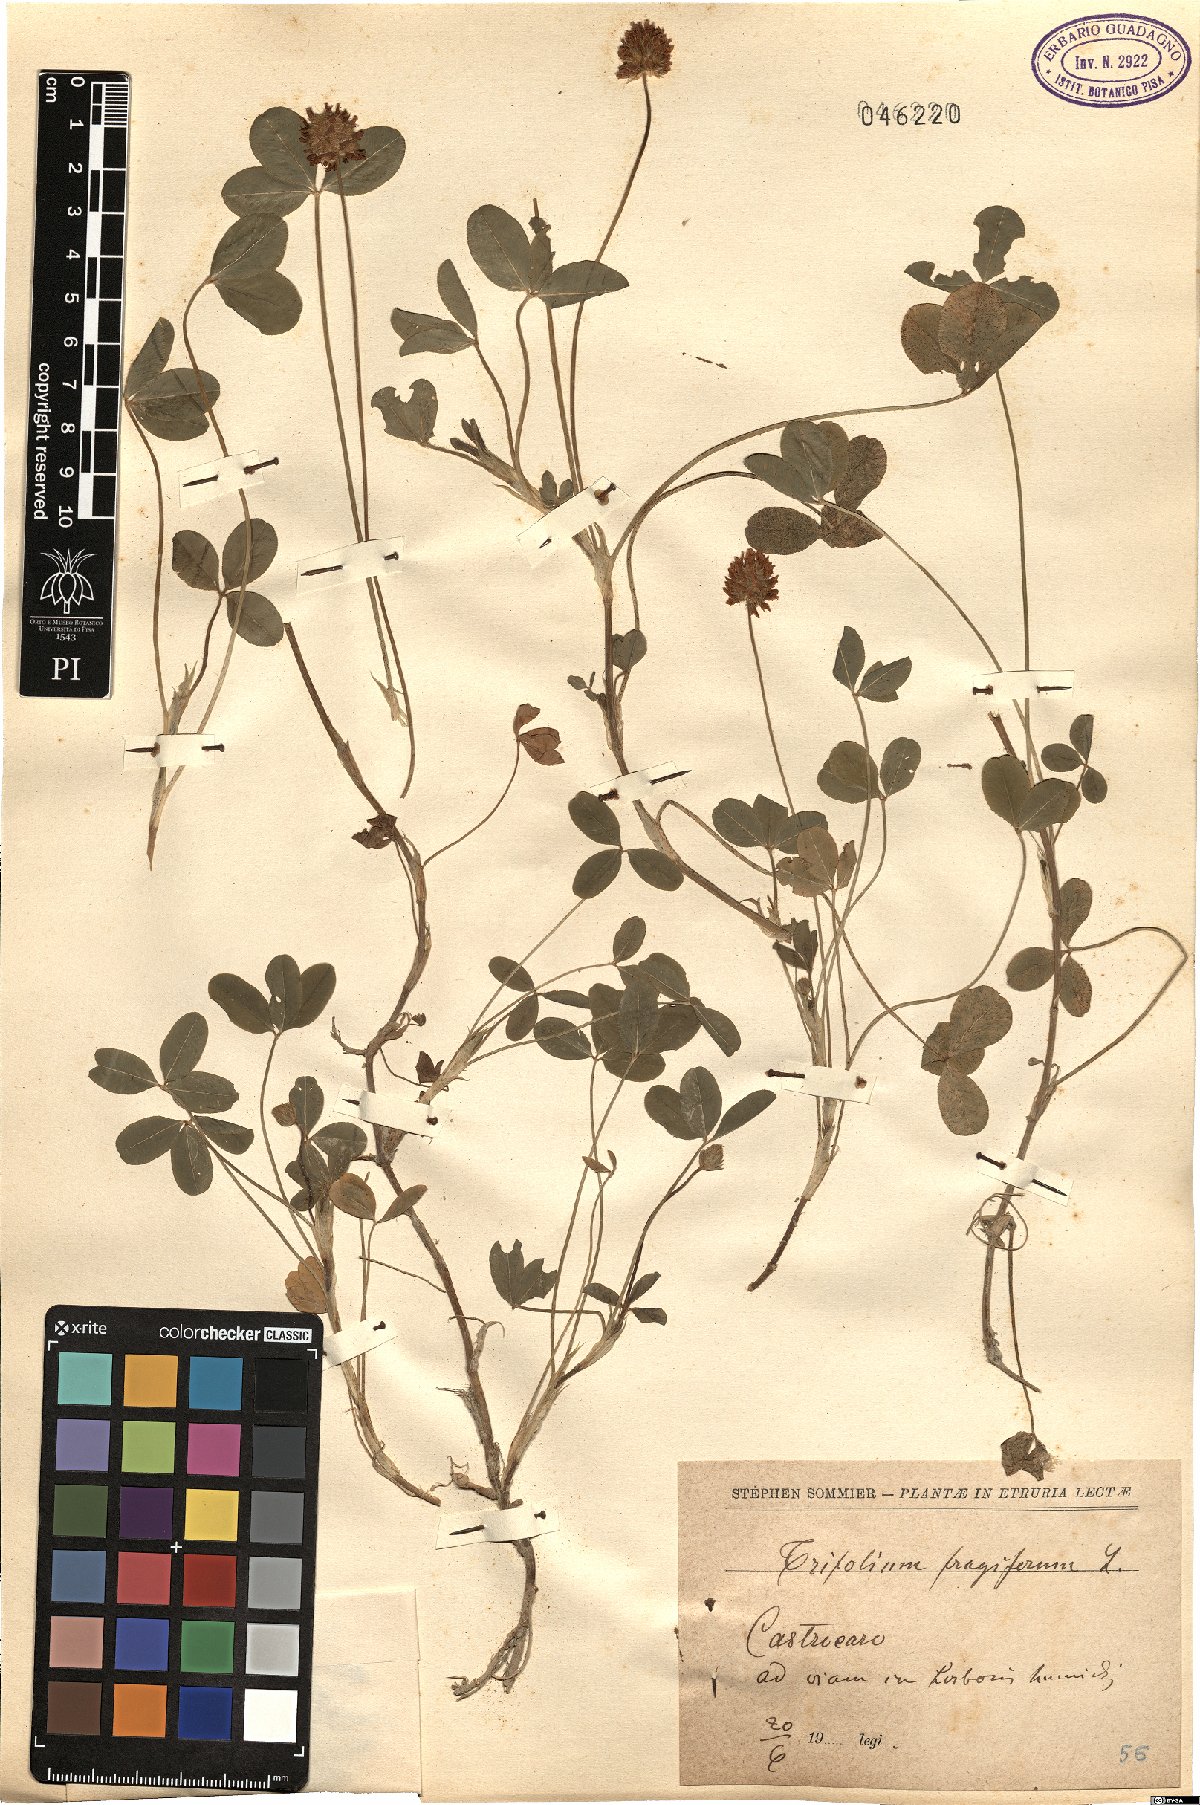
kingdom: Plantae
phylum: Tracheophyta
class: Magnoliopsida
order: Fabales
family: Fabaceae
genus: Trifolium
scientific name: Trifolium fragiferum
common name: Strawberry clover
